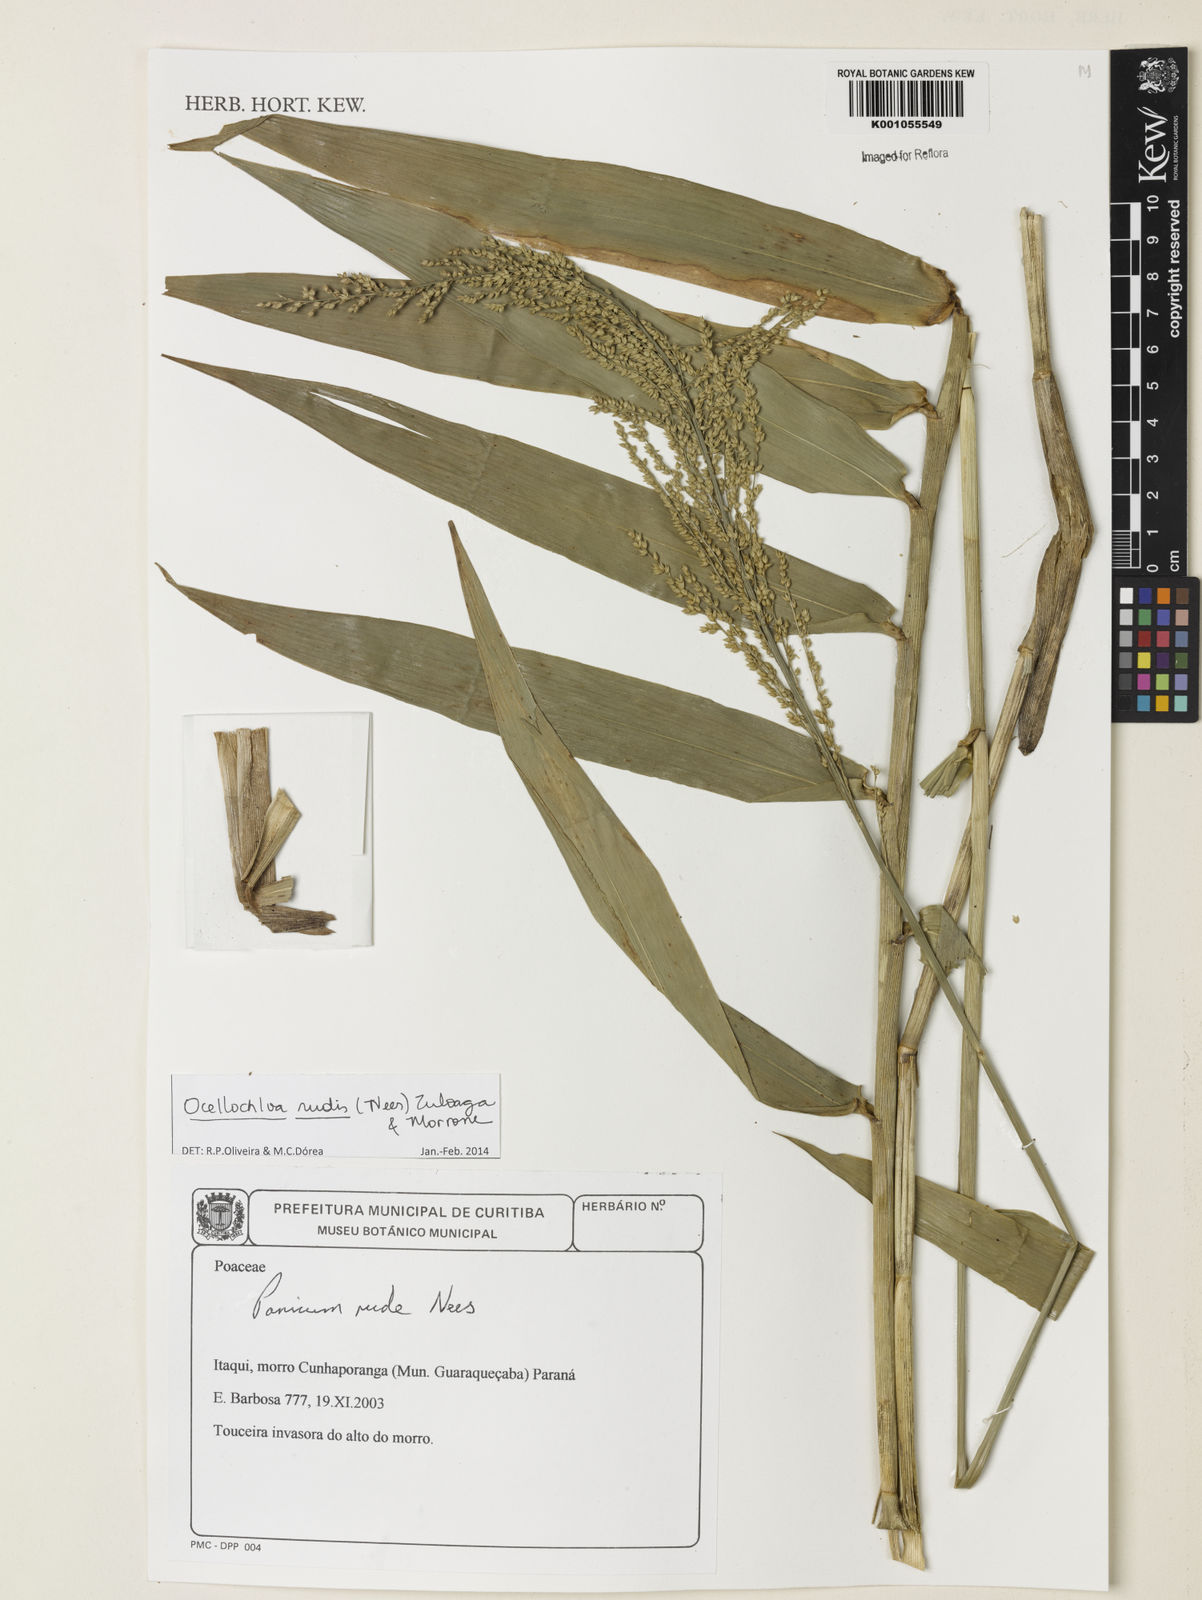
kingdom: Plantae
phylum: Tracheophyta
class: Liliopsida
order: Poales
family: Poaceae
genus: Ocellochloa
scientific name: Ocellochloa rudis
